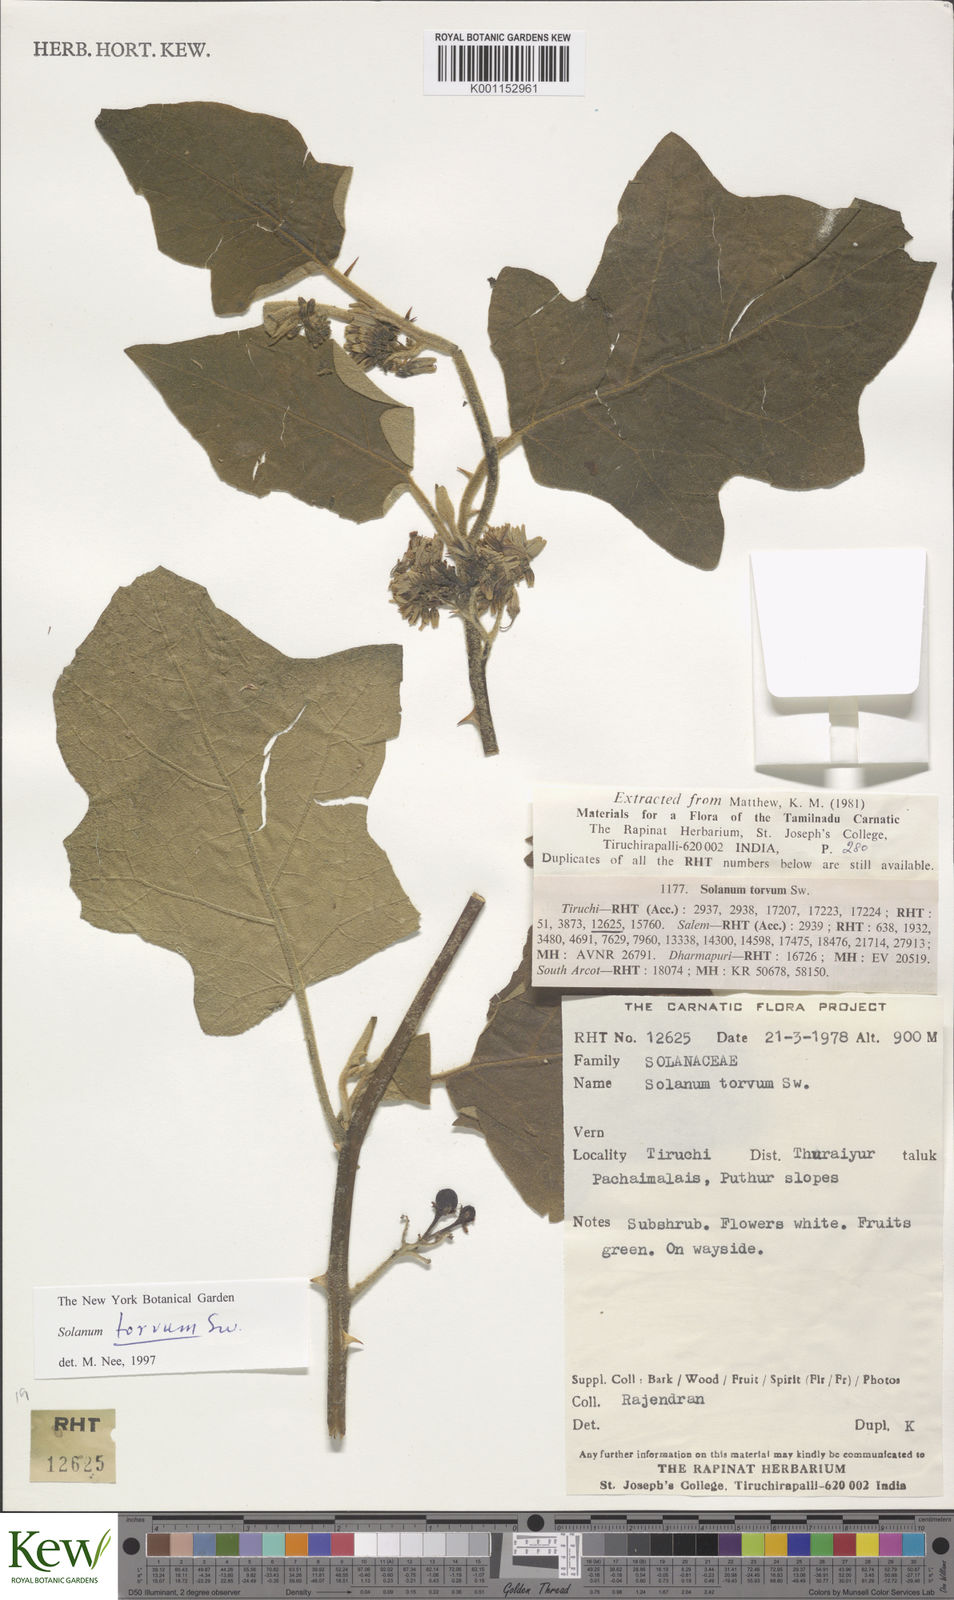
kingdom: Plantae
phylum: Tracheophyta
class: Magnoliopsida
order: Solanales
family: Solanaceae
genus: Solanum
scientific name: Solanum torvum
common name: Turkey berry
